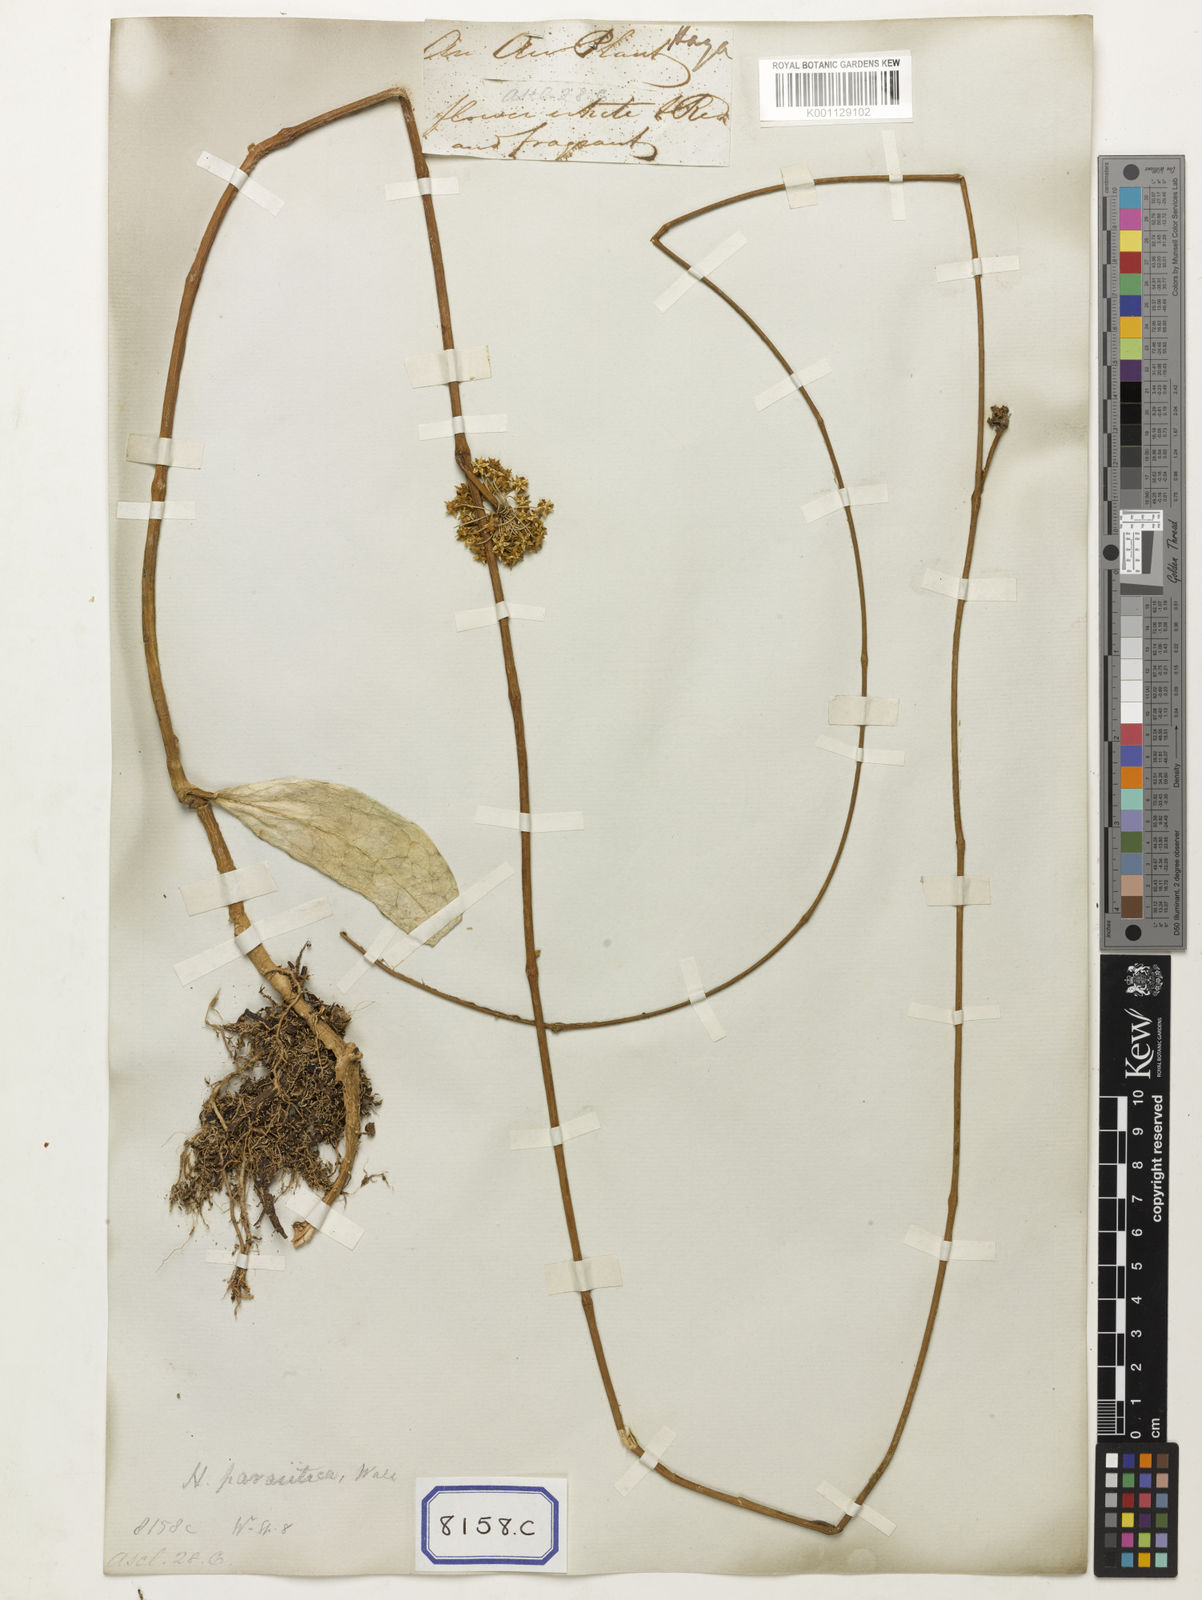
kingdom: Plantae
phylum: Tracheophyta
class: Magnoliopsida
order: Gentianales
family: Apocynaceae
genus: Hoya
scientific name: Hoya verticillata
